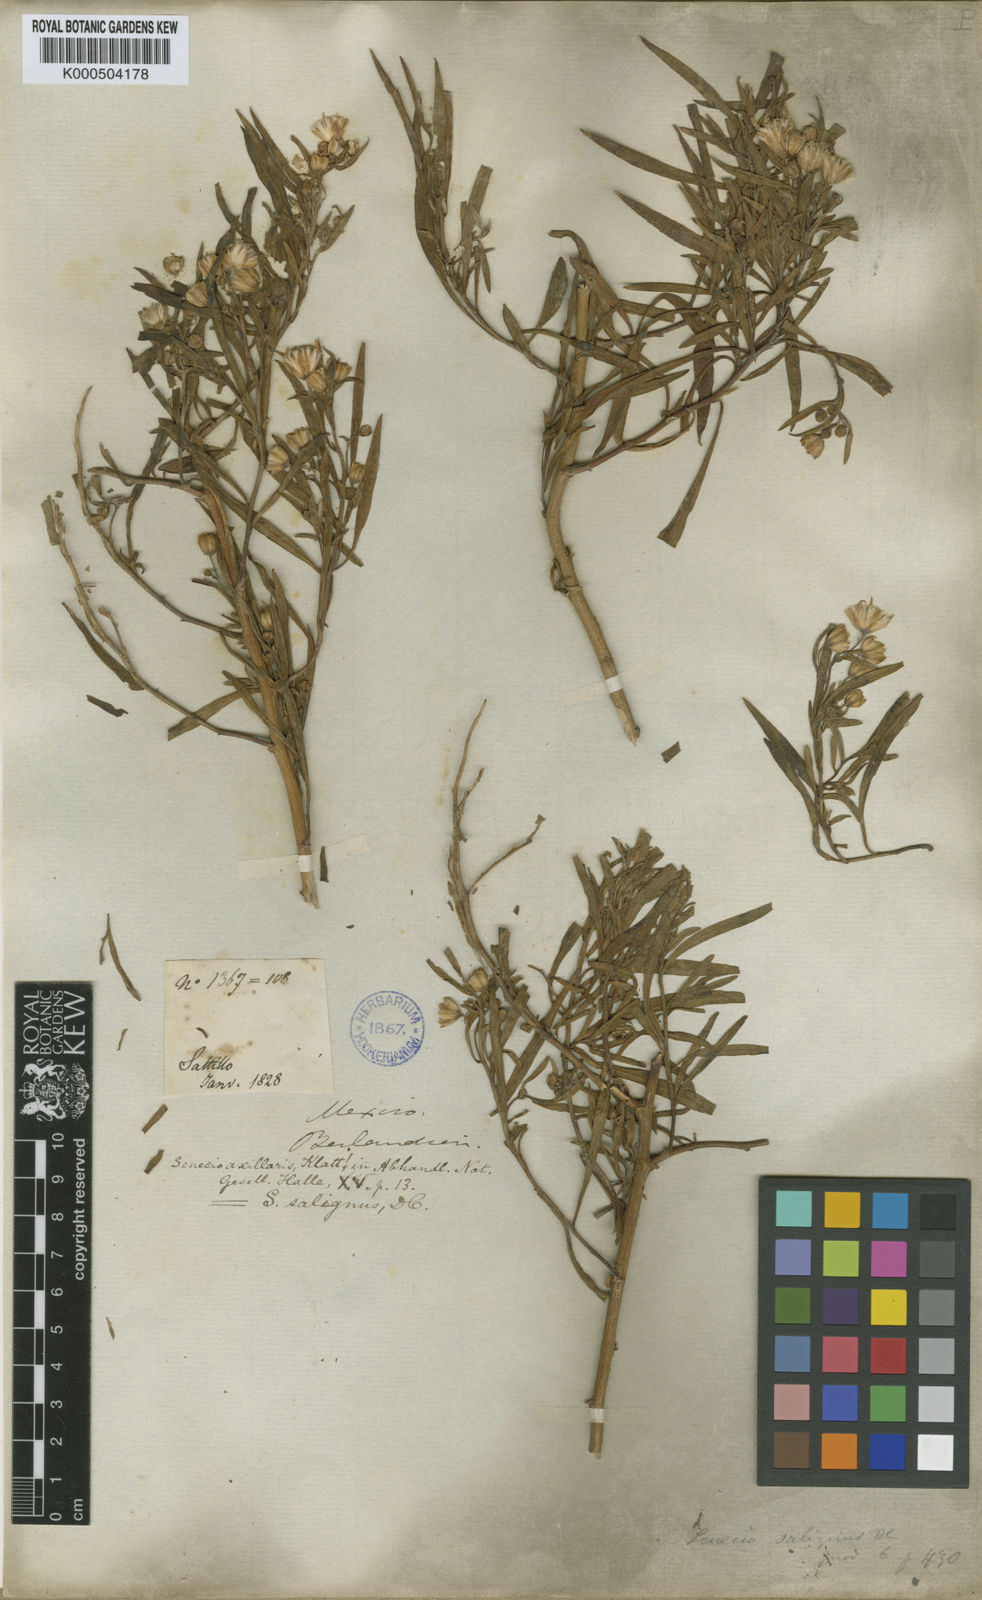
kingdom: Plantae
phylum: Tracheophyta
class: Magnoliopsida
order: Asterales
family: Asteraceae
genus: Barkleyanthus
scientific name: Barkleyanthus salicifolius
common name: Willow ragwort
